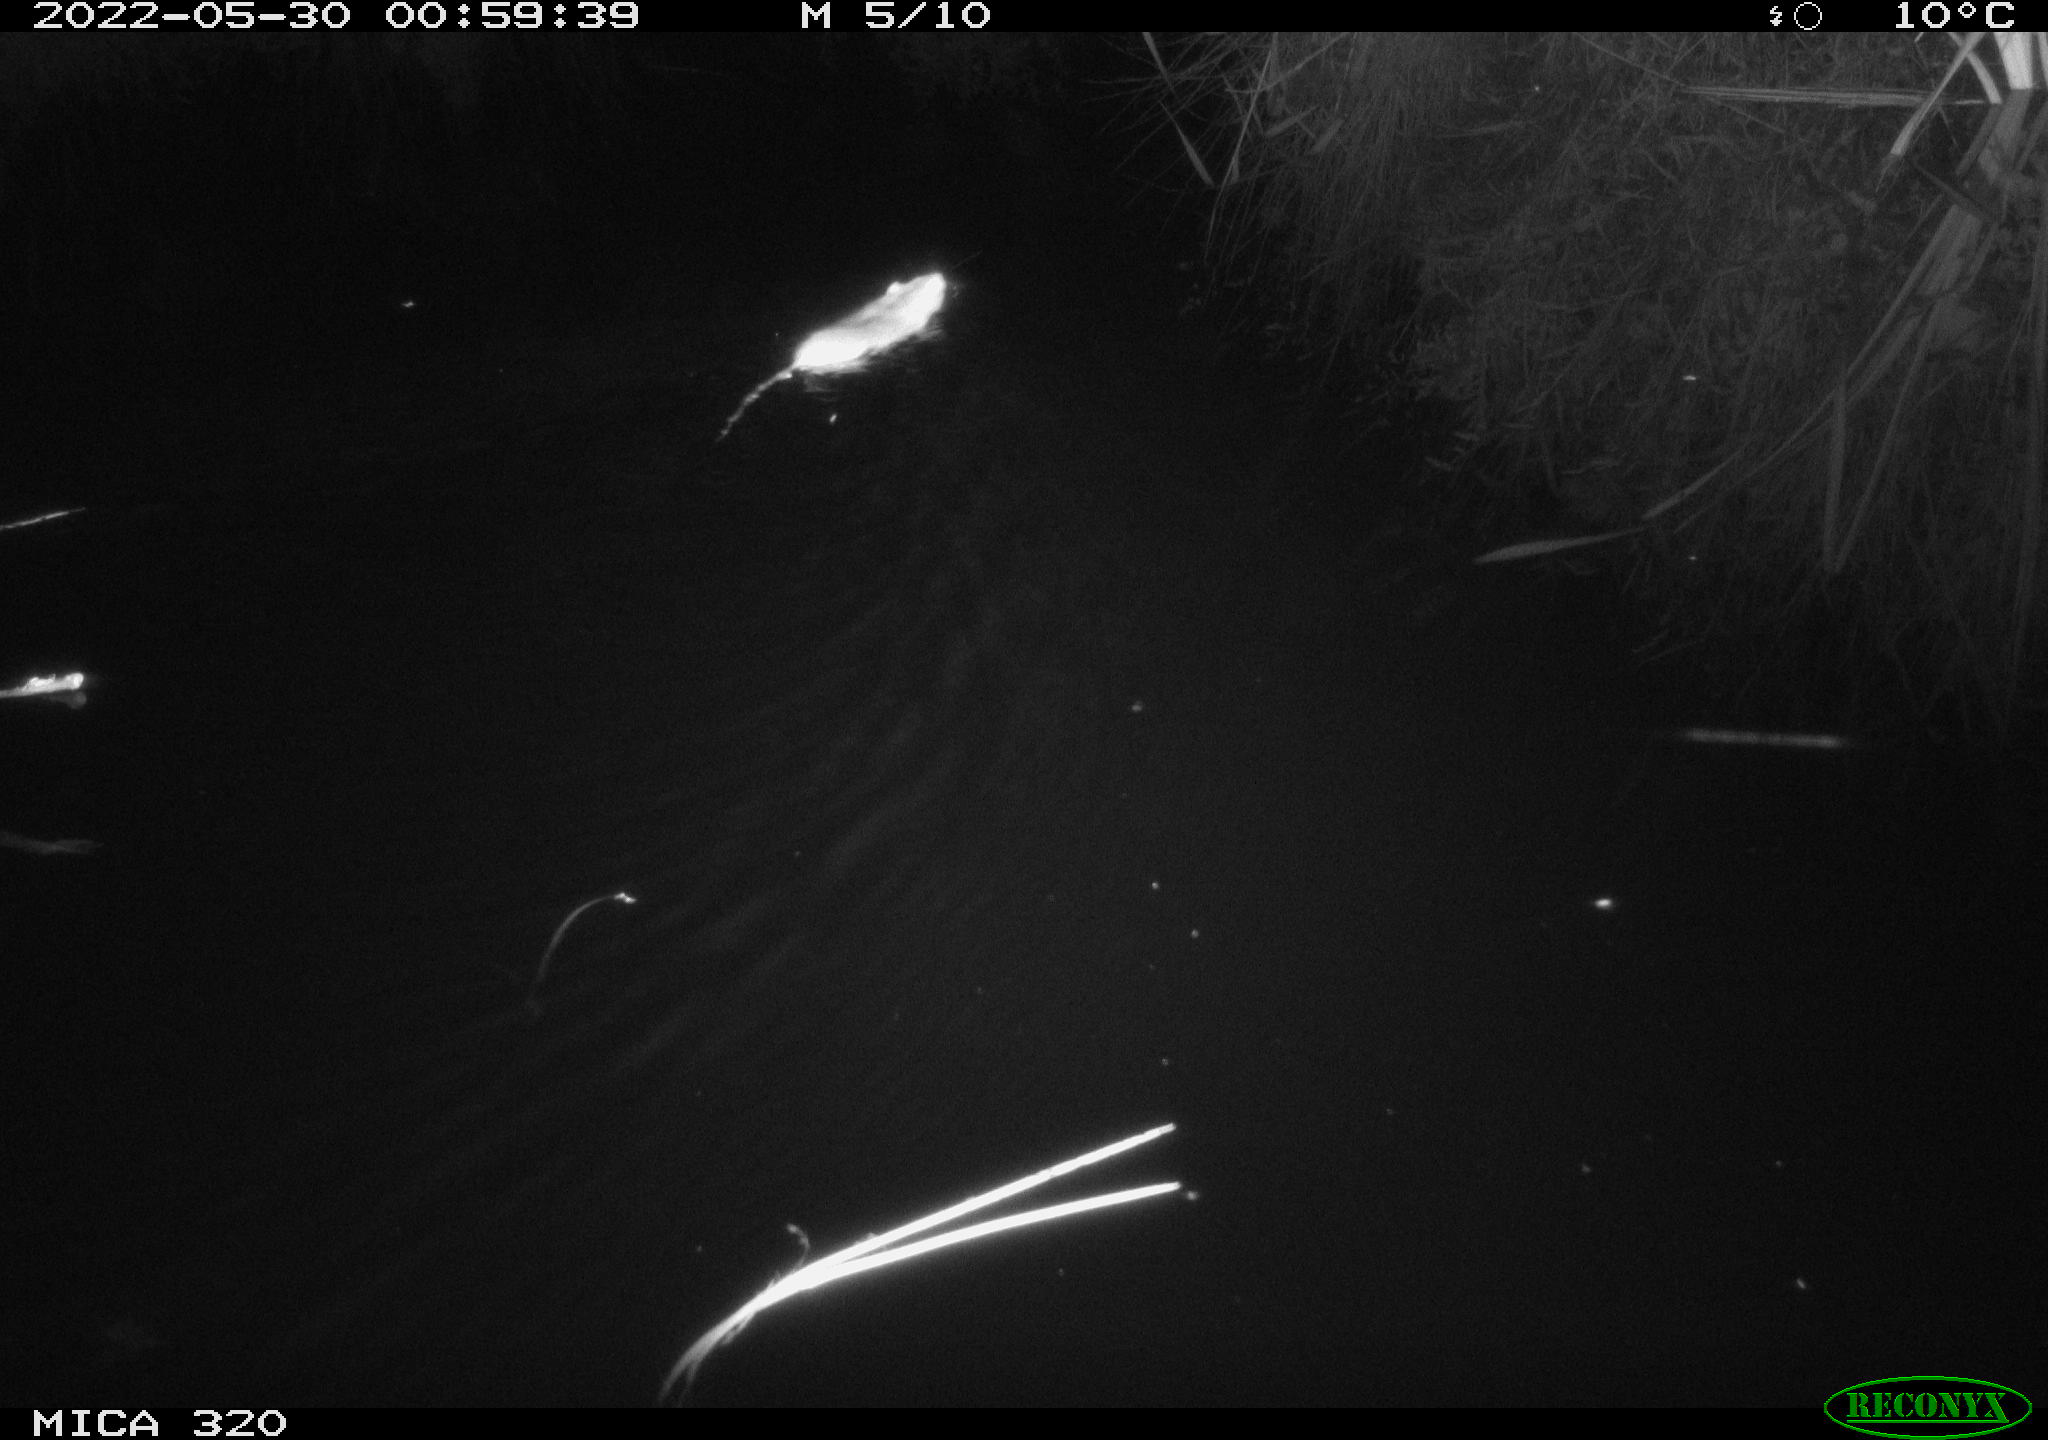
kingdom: Animalia
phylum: Chordata
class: Mammalia
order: Rodentia
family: Muridae
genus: Rattus
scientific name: Rattus norvegicus
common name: Brown rat
